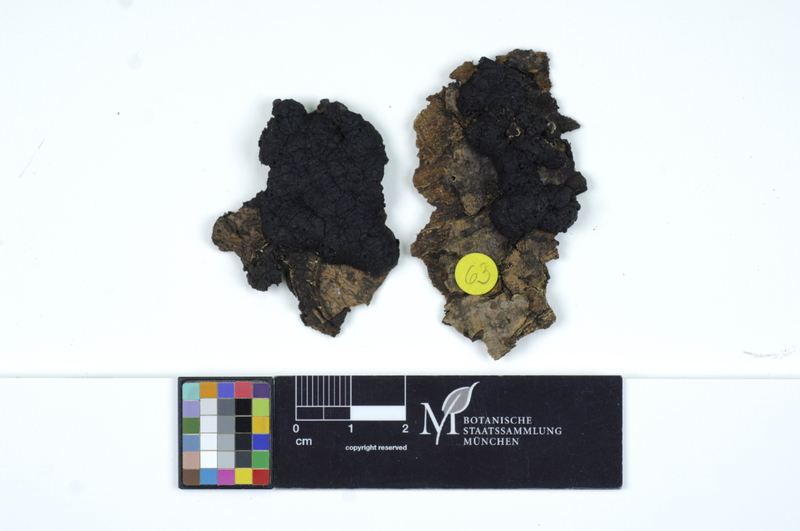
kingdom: Fungi
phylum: Ascomycota
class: Sordariomycetes
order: Xylariales
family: Hypoxylaceae
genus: Jackrogersella
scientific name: Jackrogersella multiformis
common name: Birch woodwart
